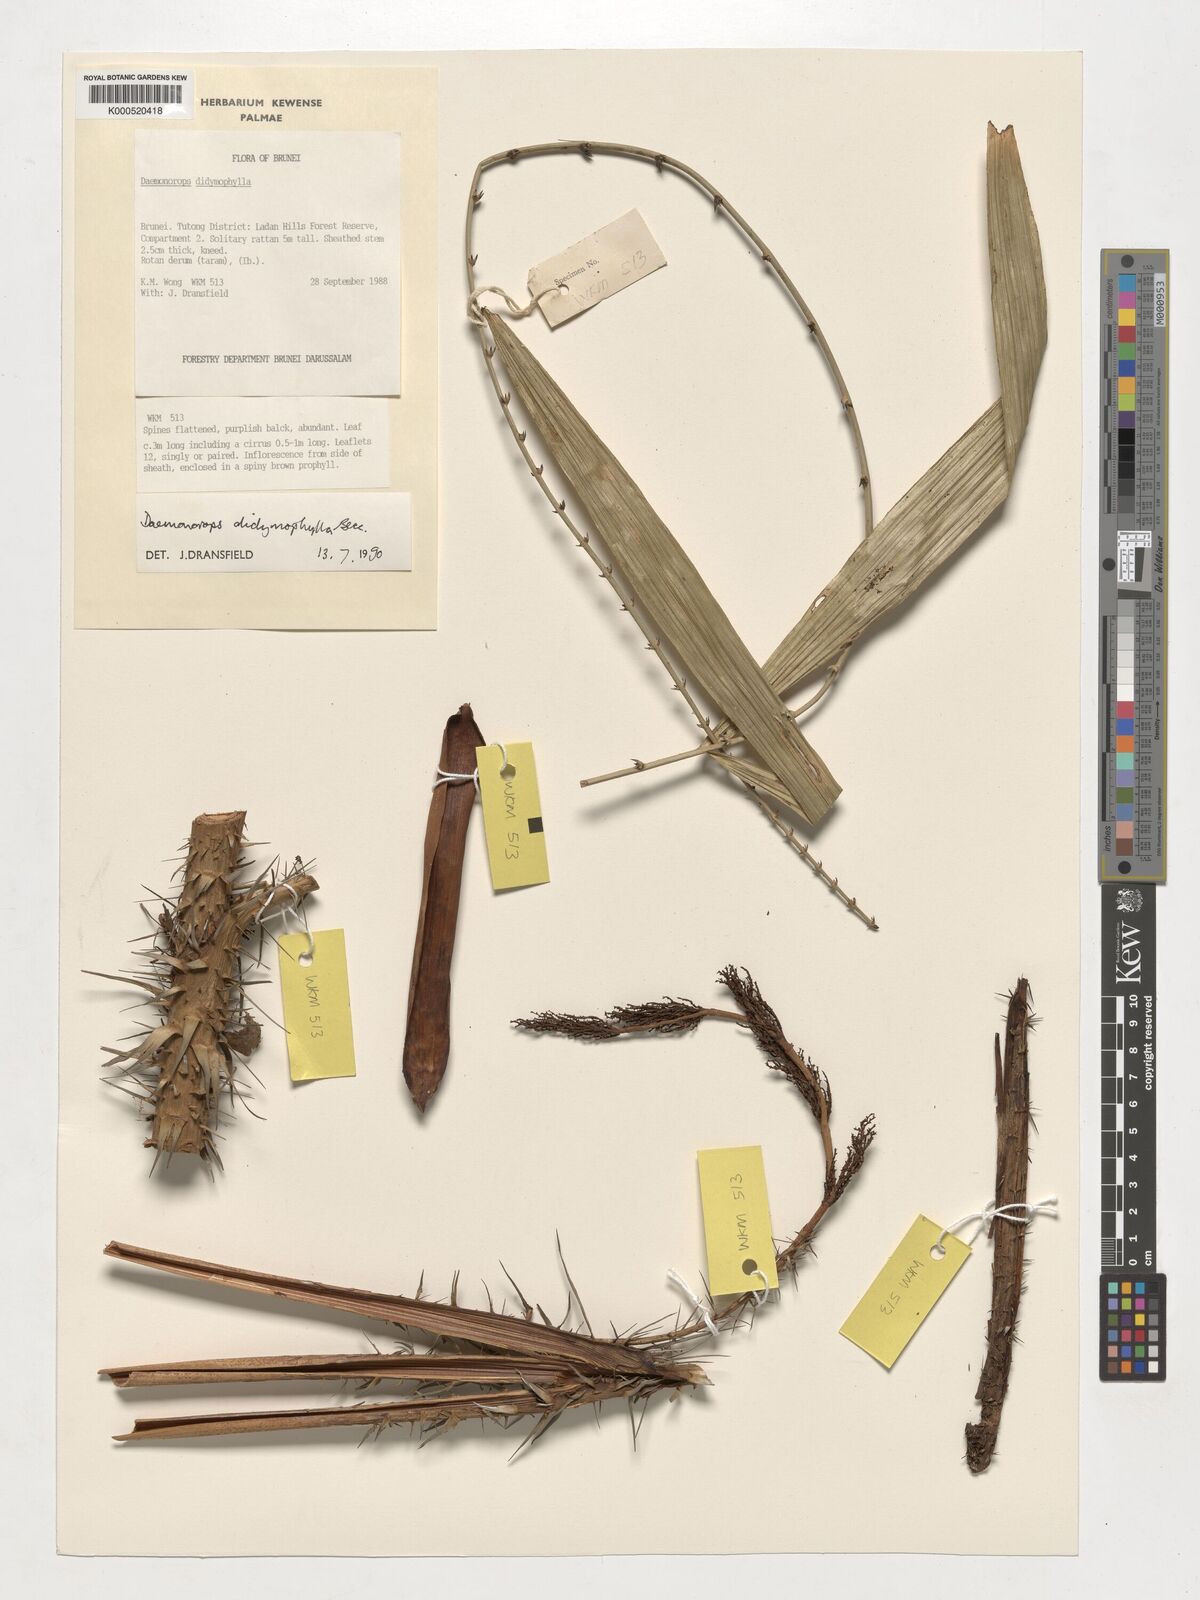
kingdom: Plantae
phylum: Tracheophyta
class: Liliopsida
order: Arecales
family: Arecaceae
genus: Calamus
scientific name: Calamus gracilipes
